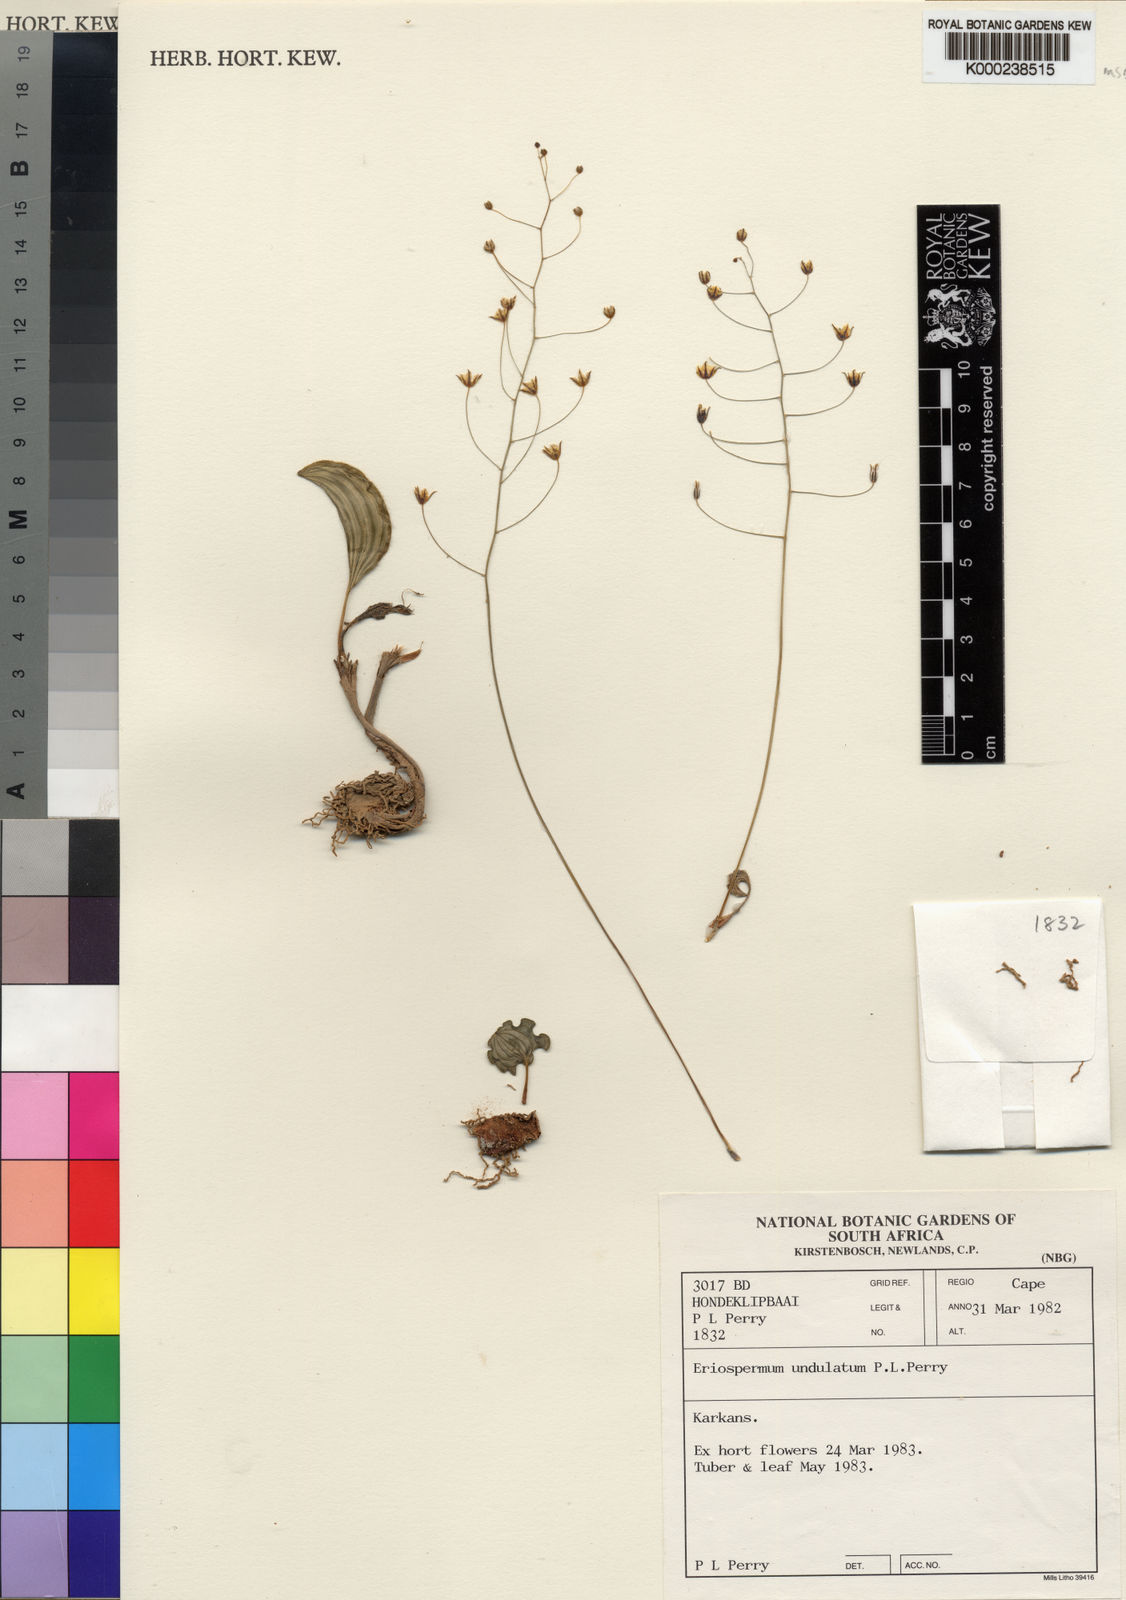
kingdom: Plantae
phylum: Tracheophyta
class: Liliopsida
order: Asparagales
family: Asparagaceae
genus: Eriospermum
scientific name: Eriospermum undulatum
